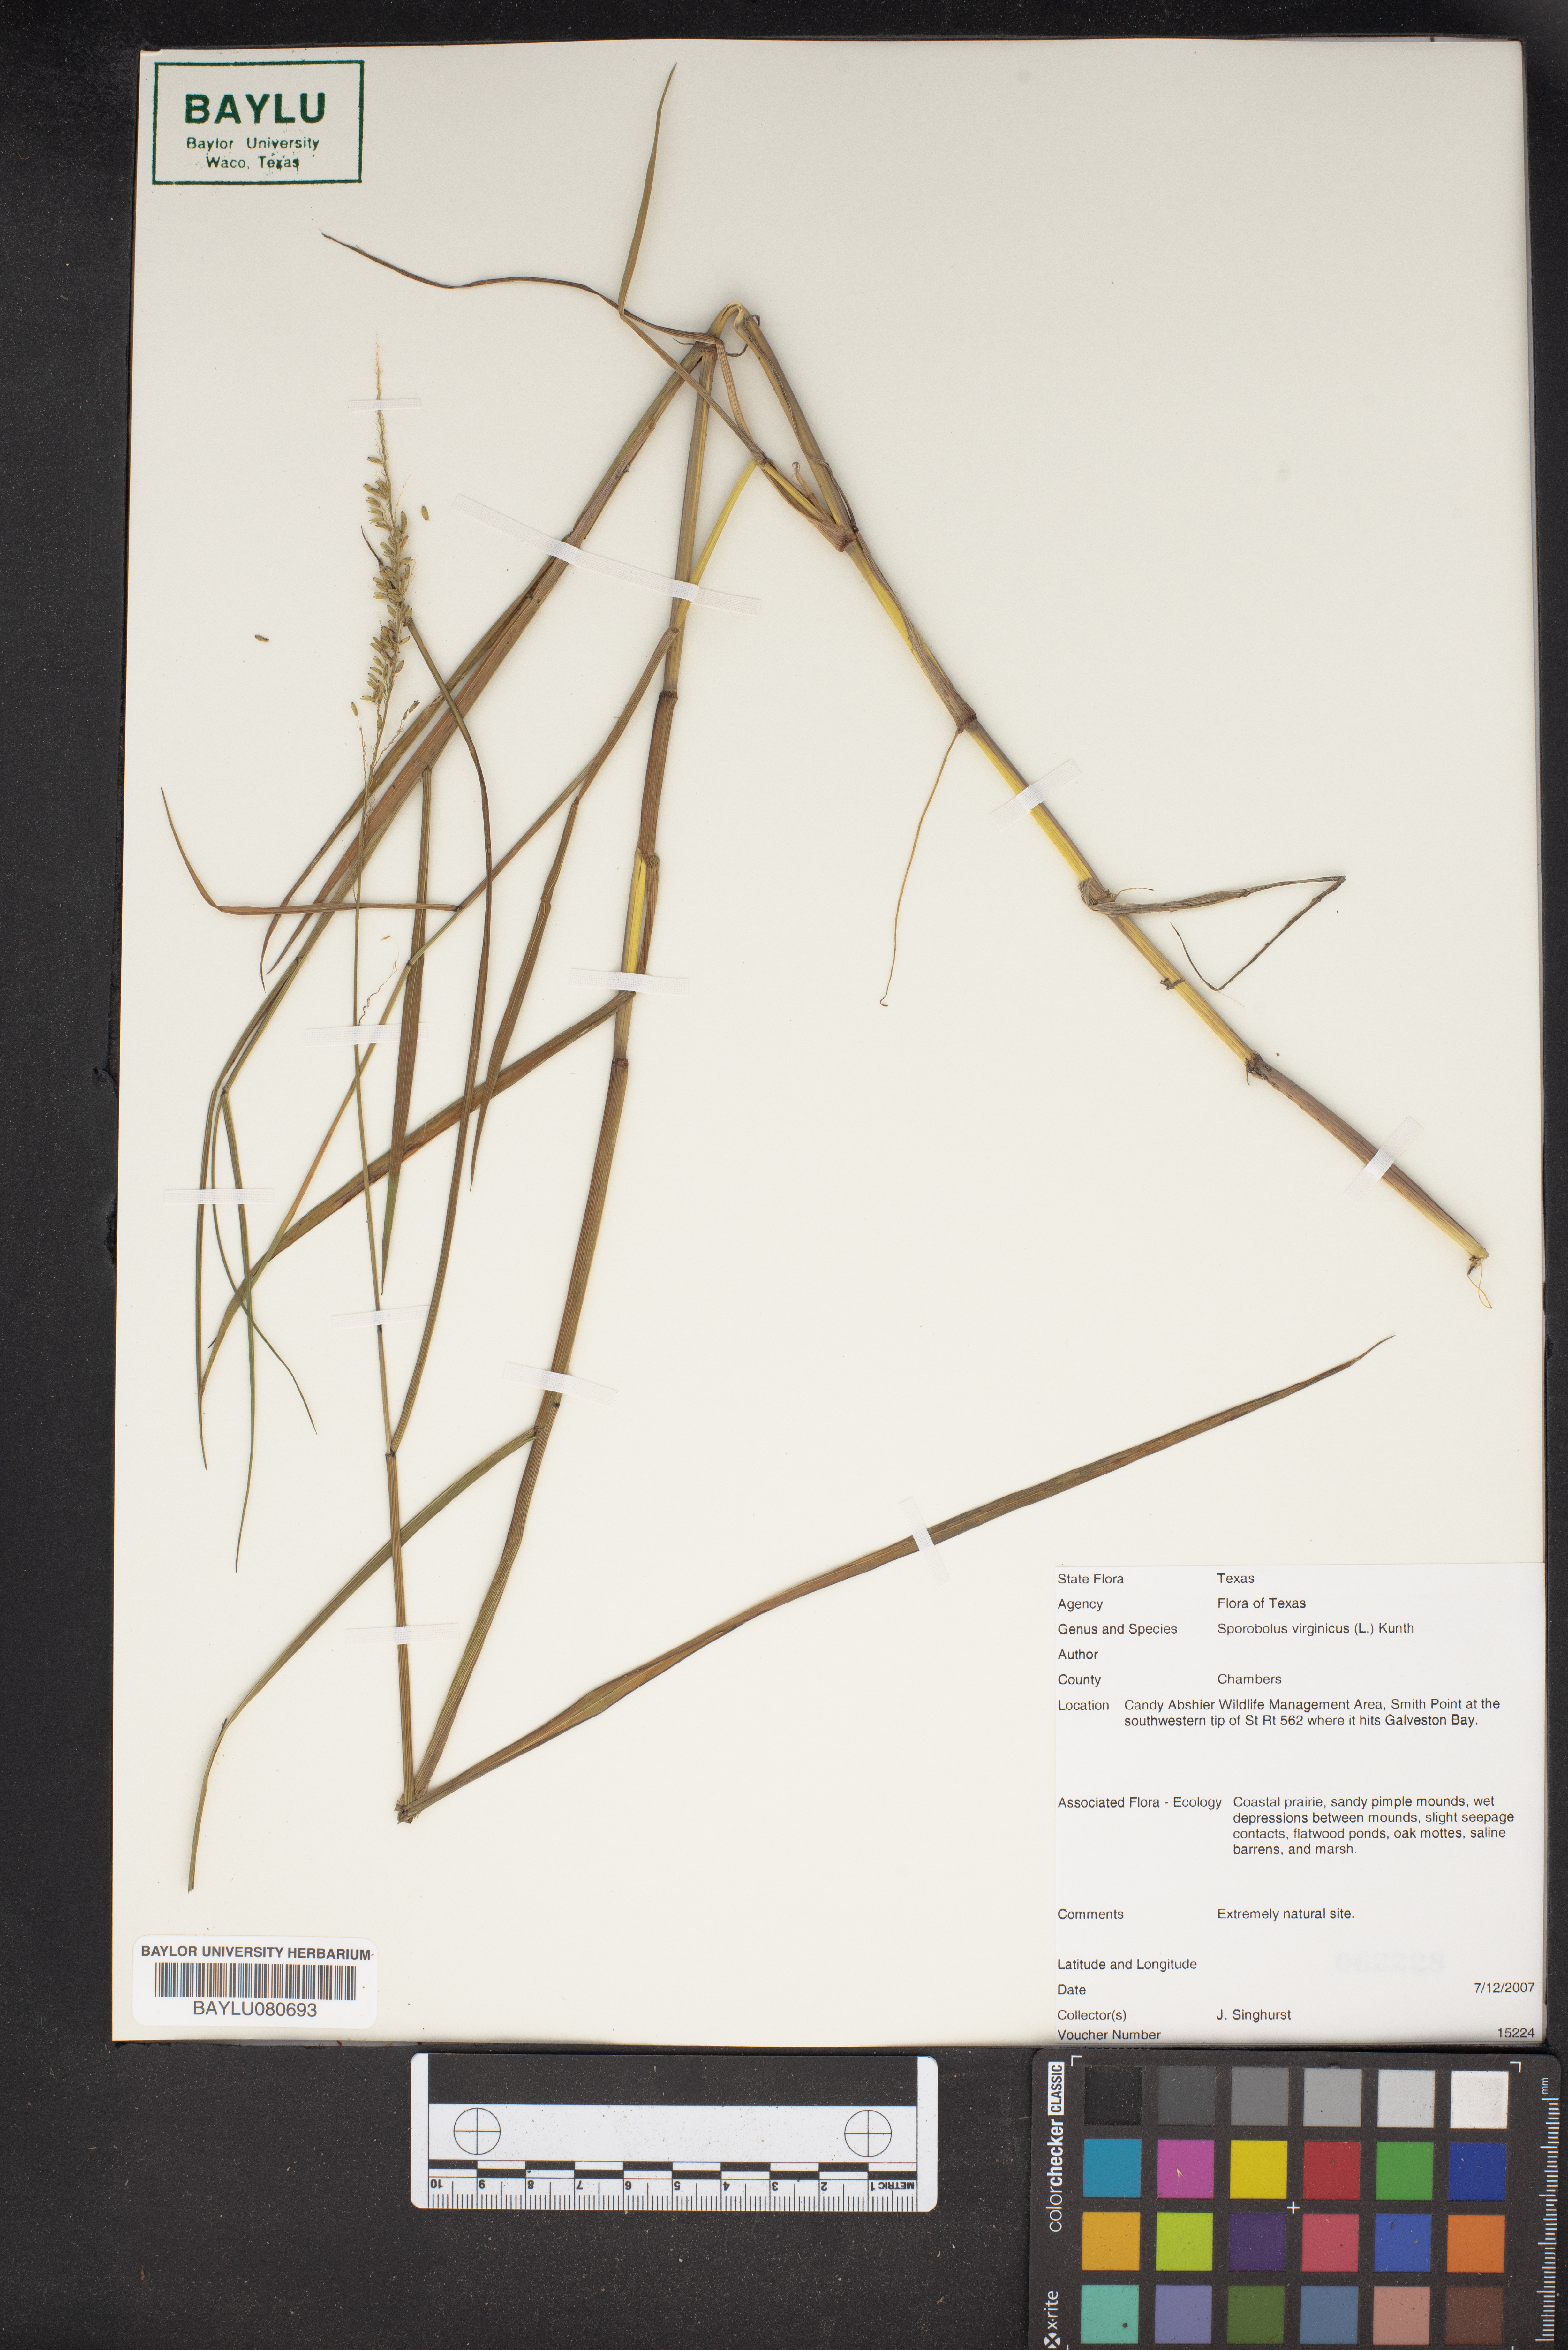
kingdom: Plantae
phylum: Tracheophyta
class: Liliopsida
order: Poales
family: Poaceae
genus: Sporobolus
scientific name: Sporobolus virginicus
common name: Beach dropseed
